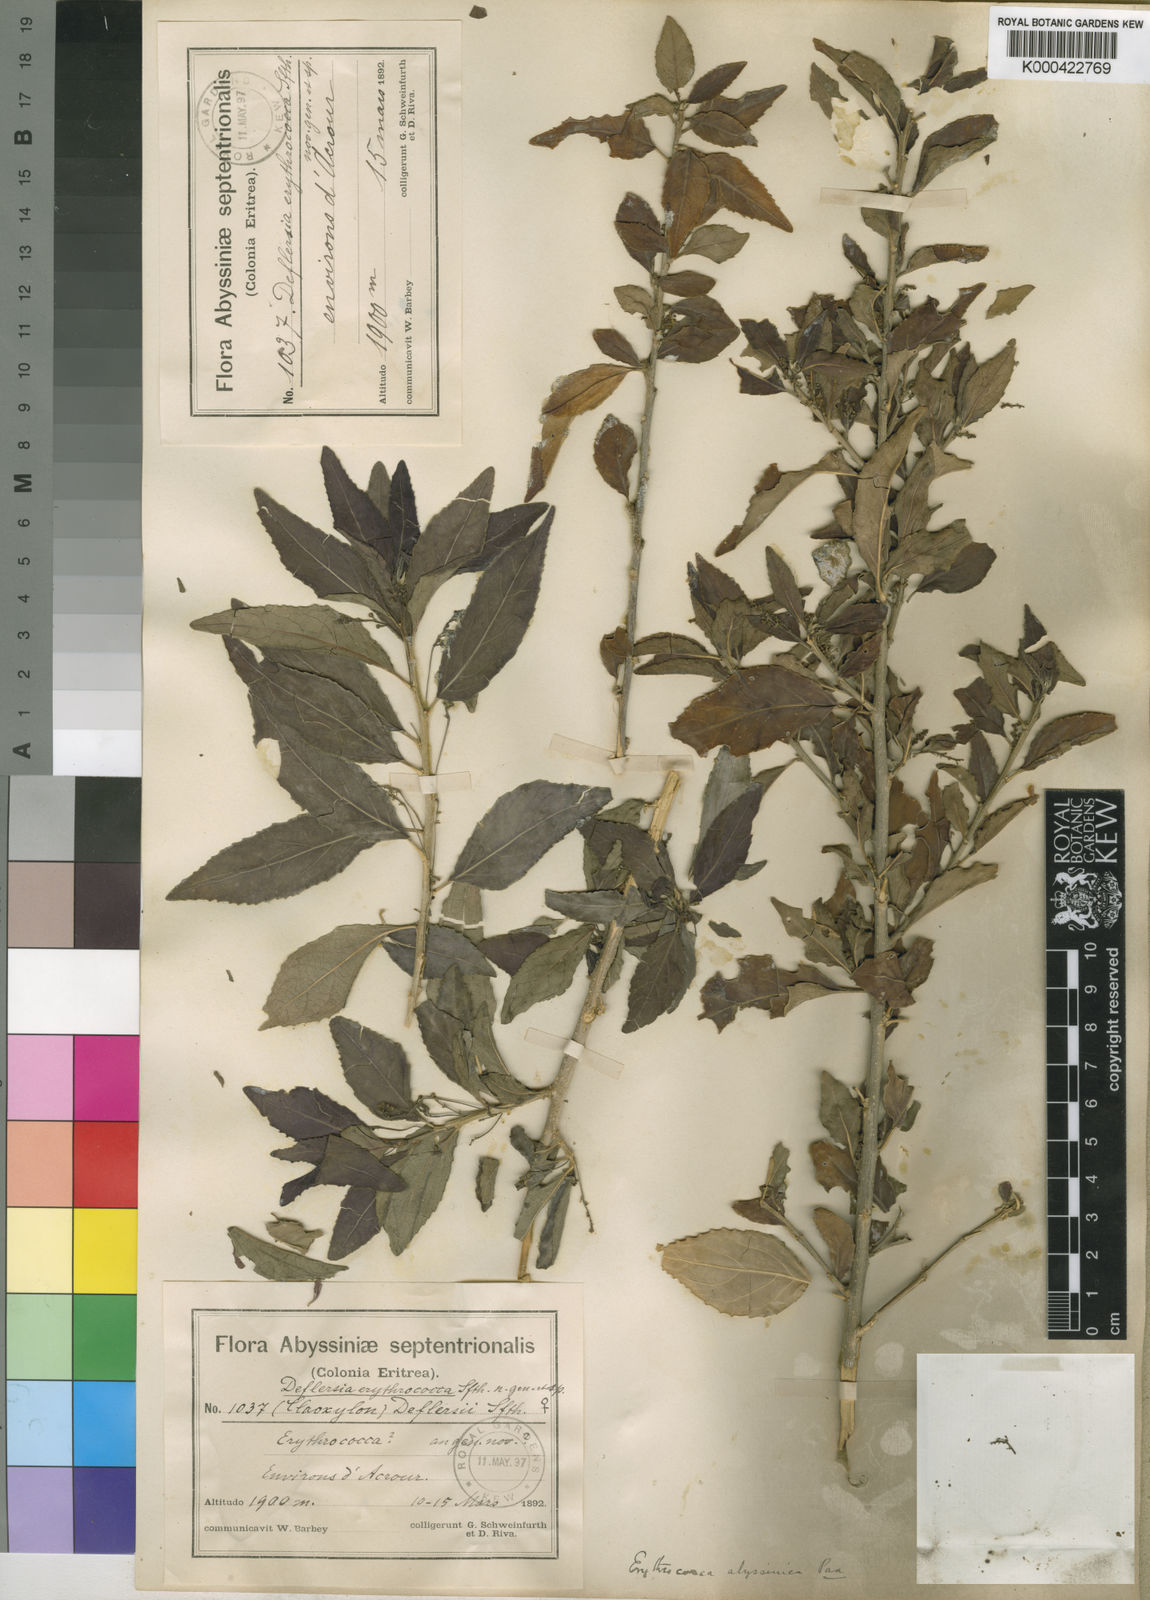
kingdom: Plantae
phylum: Tracheophyta
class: Magnoliopsida
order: Malpighiales
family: Euphorbiaceae
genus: Erythrococca
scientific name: Erythrococca abyssinica
